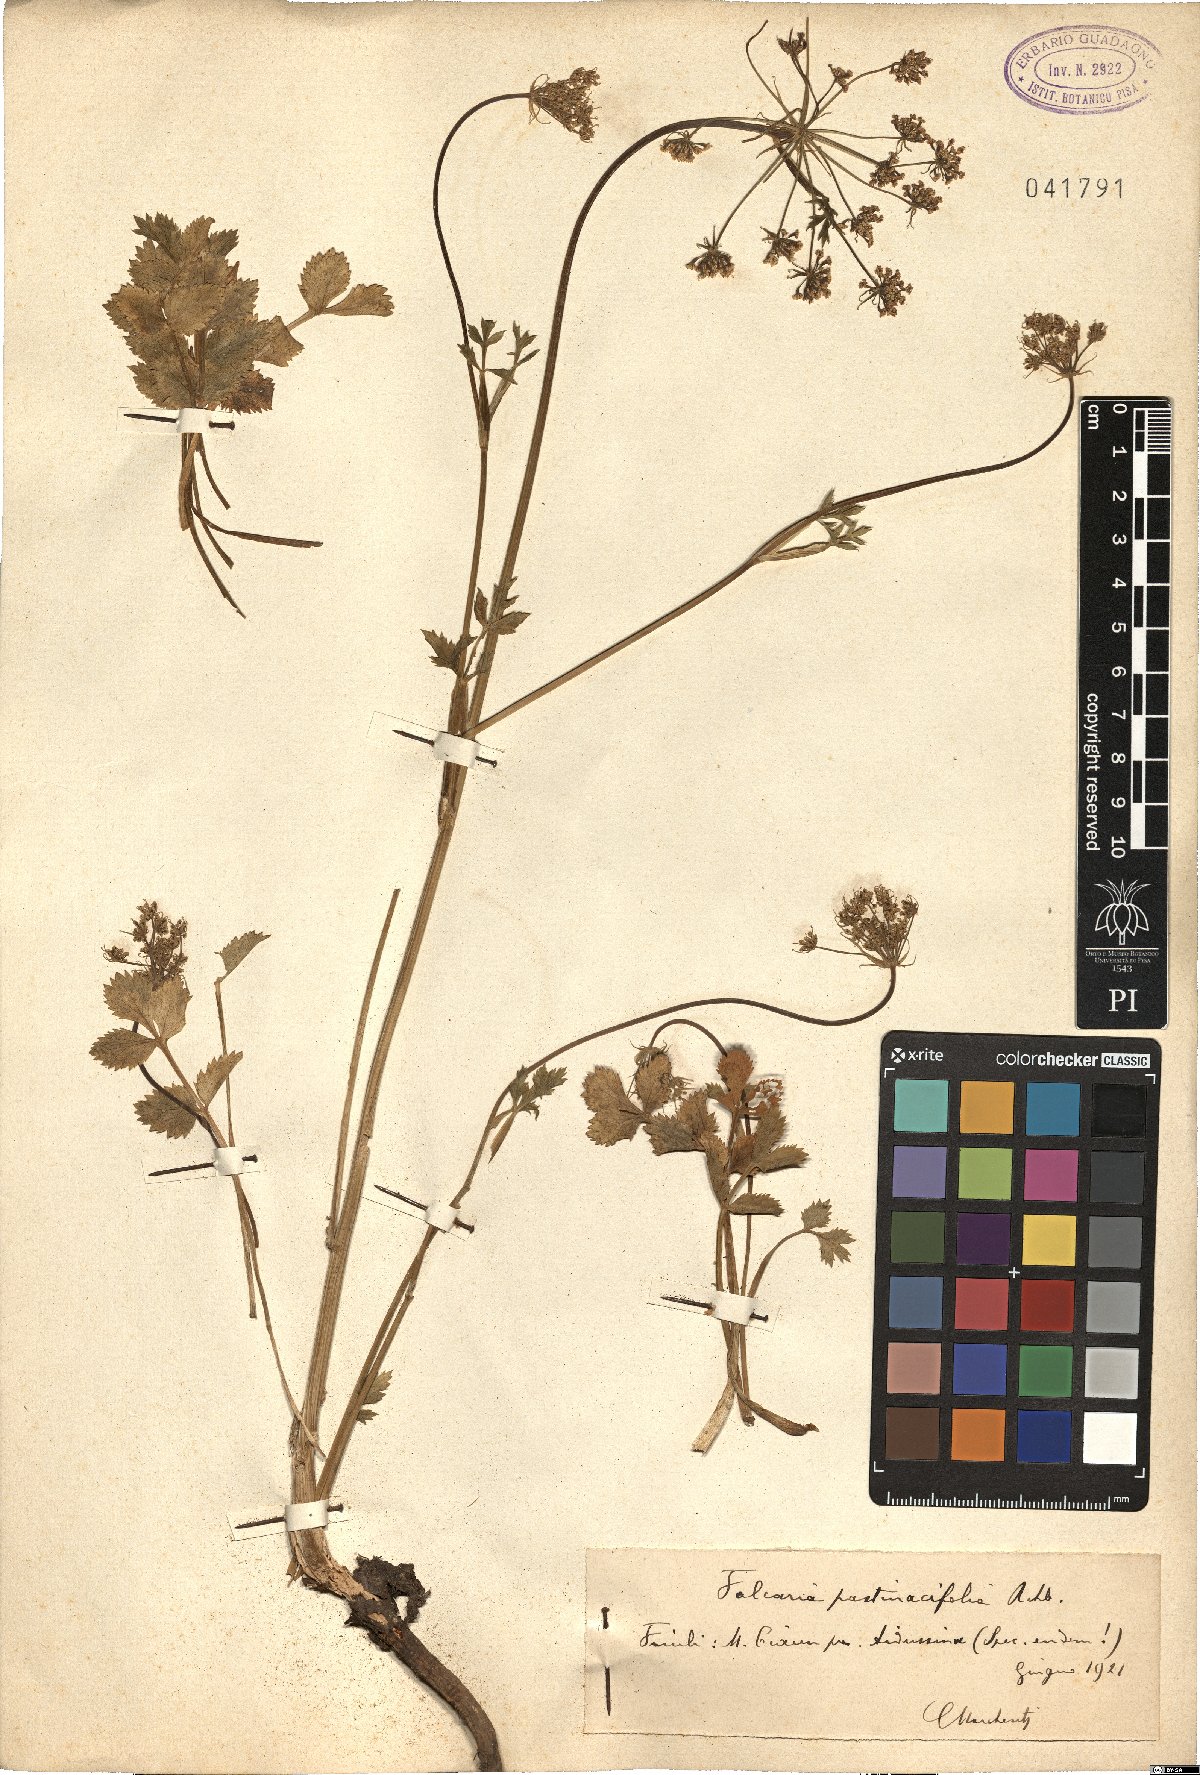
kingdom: Plantae
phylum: Tracheophyta
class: Magnoliopsida
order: Apiales
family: Apiaceae
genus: Hladnikia
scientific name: Hladnikia pastinacifolia
